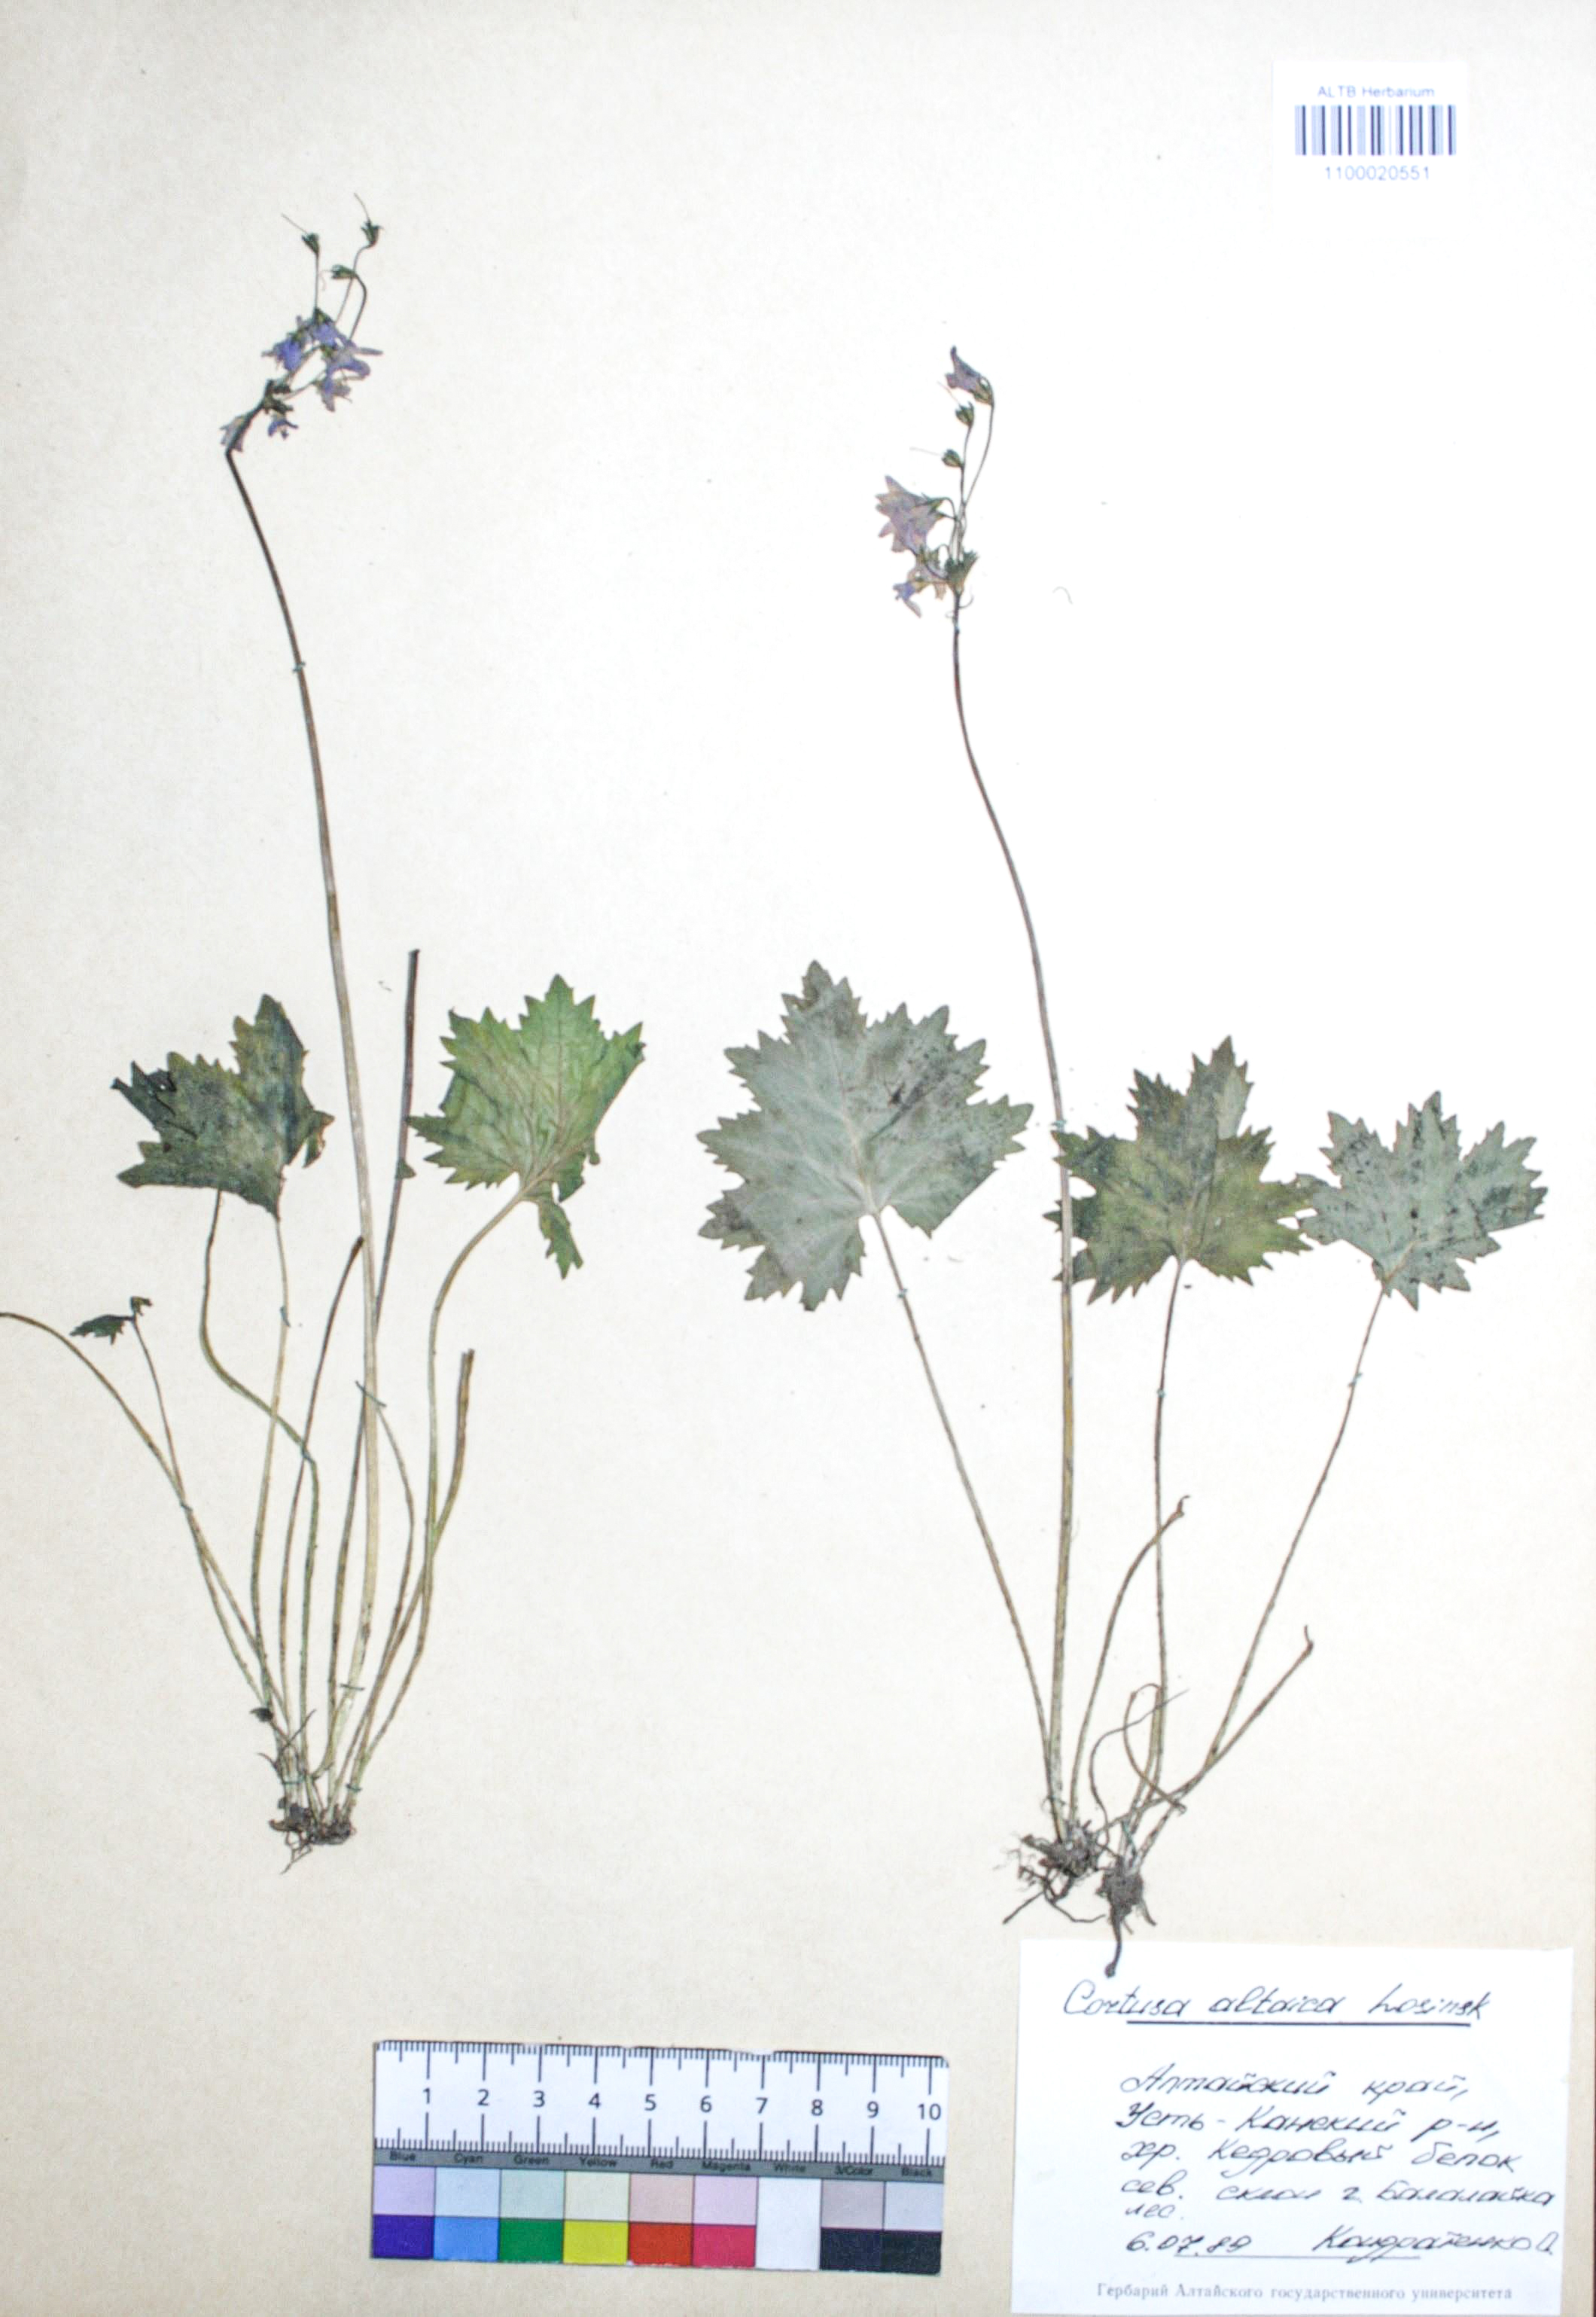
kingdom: Plantae
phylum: Tracheophyta
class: Magnoliopsida
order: Ericales
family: Primulaceae
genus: Primula
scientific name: Primula matthioli
